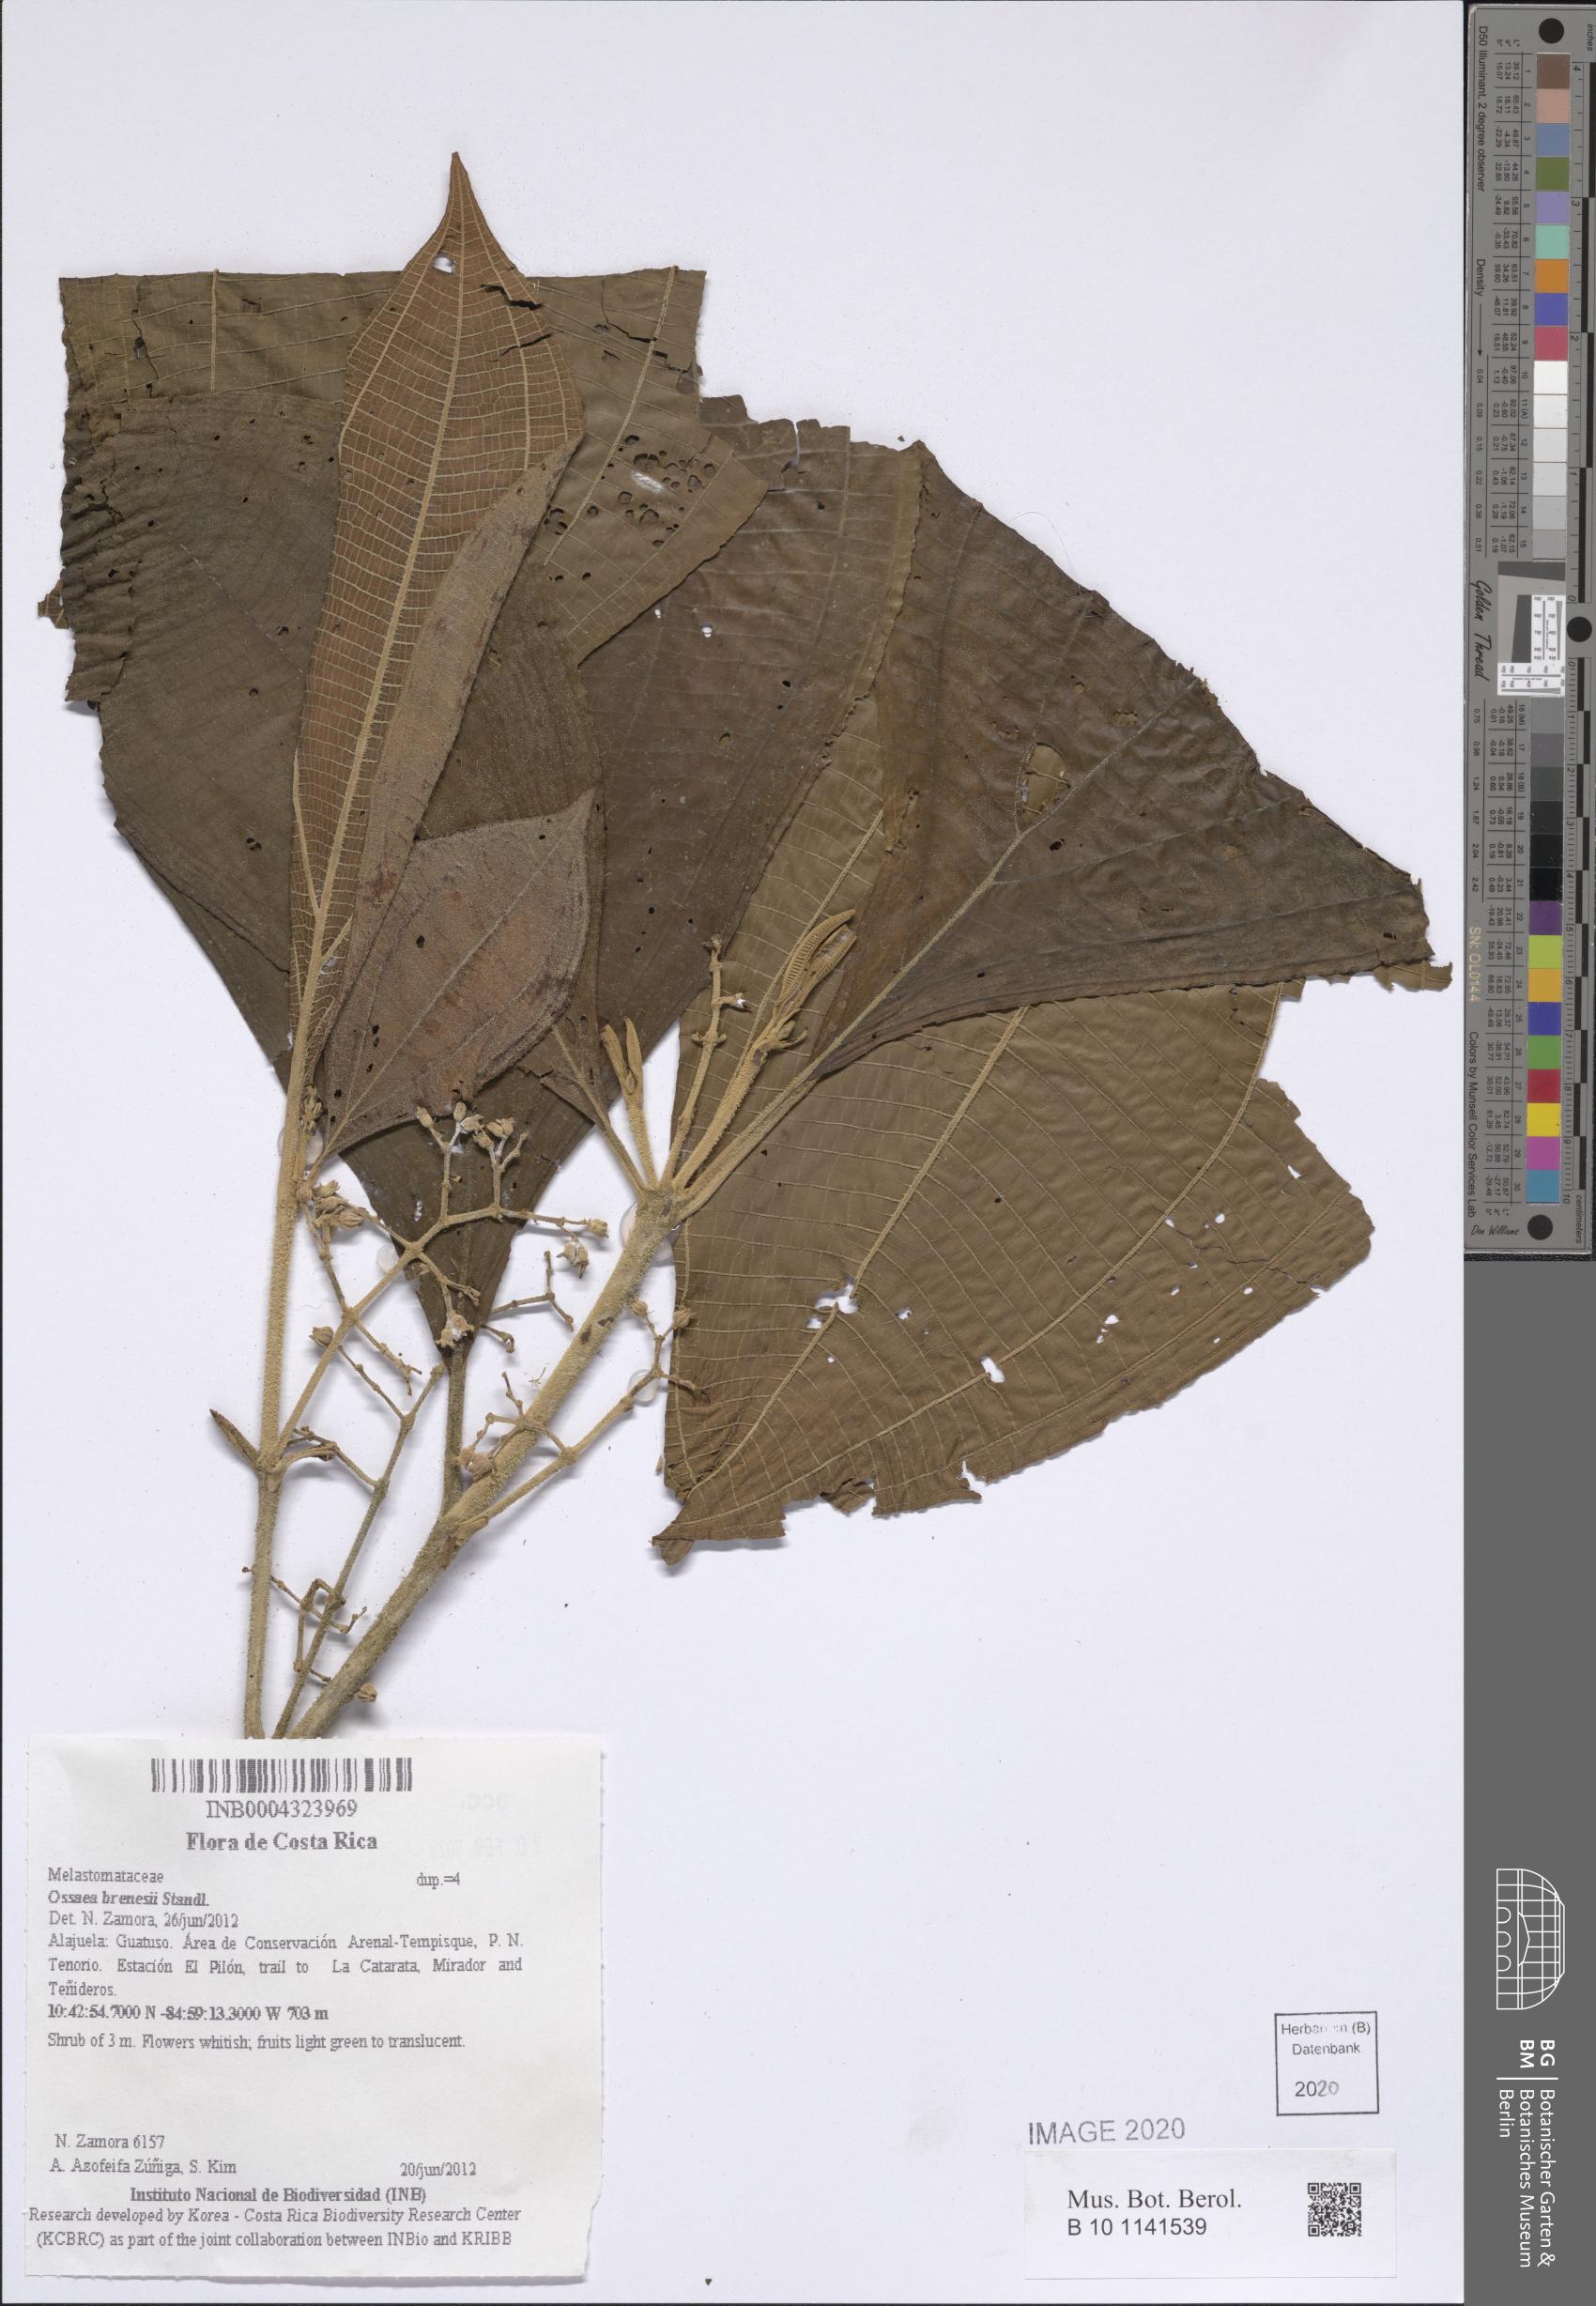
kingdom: Plantae
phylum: Tracheophyta
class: Magnoliopsida
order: Myrtales
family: Melastomataceae
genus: Miconia
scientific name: Miconia albertobrenesii
